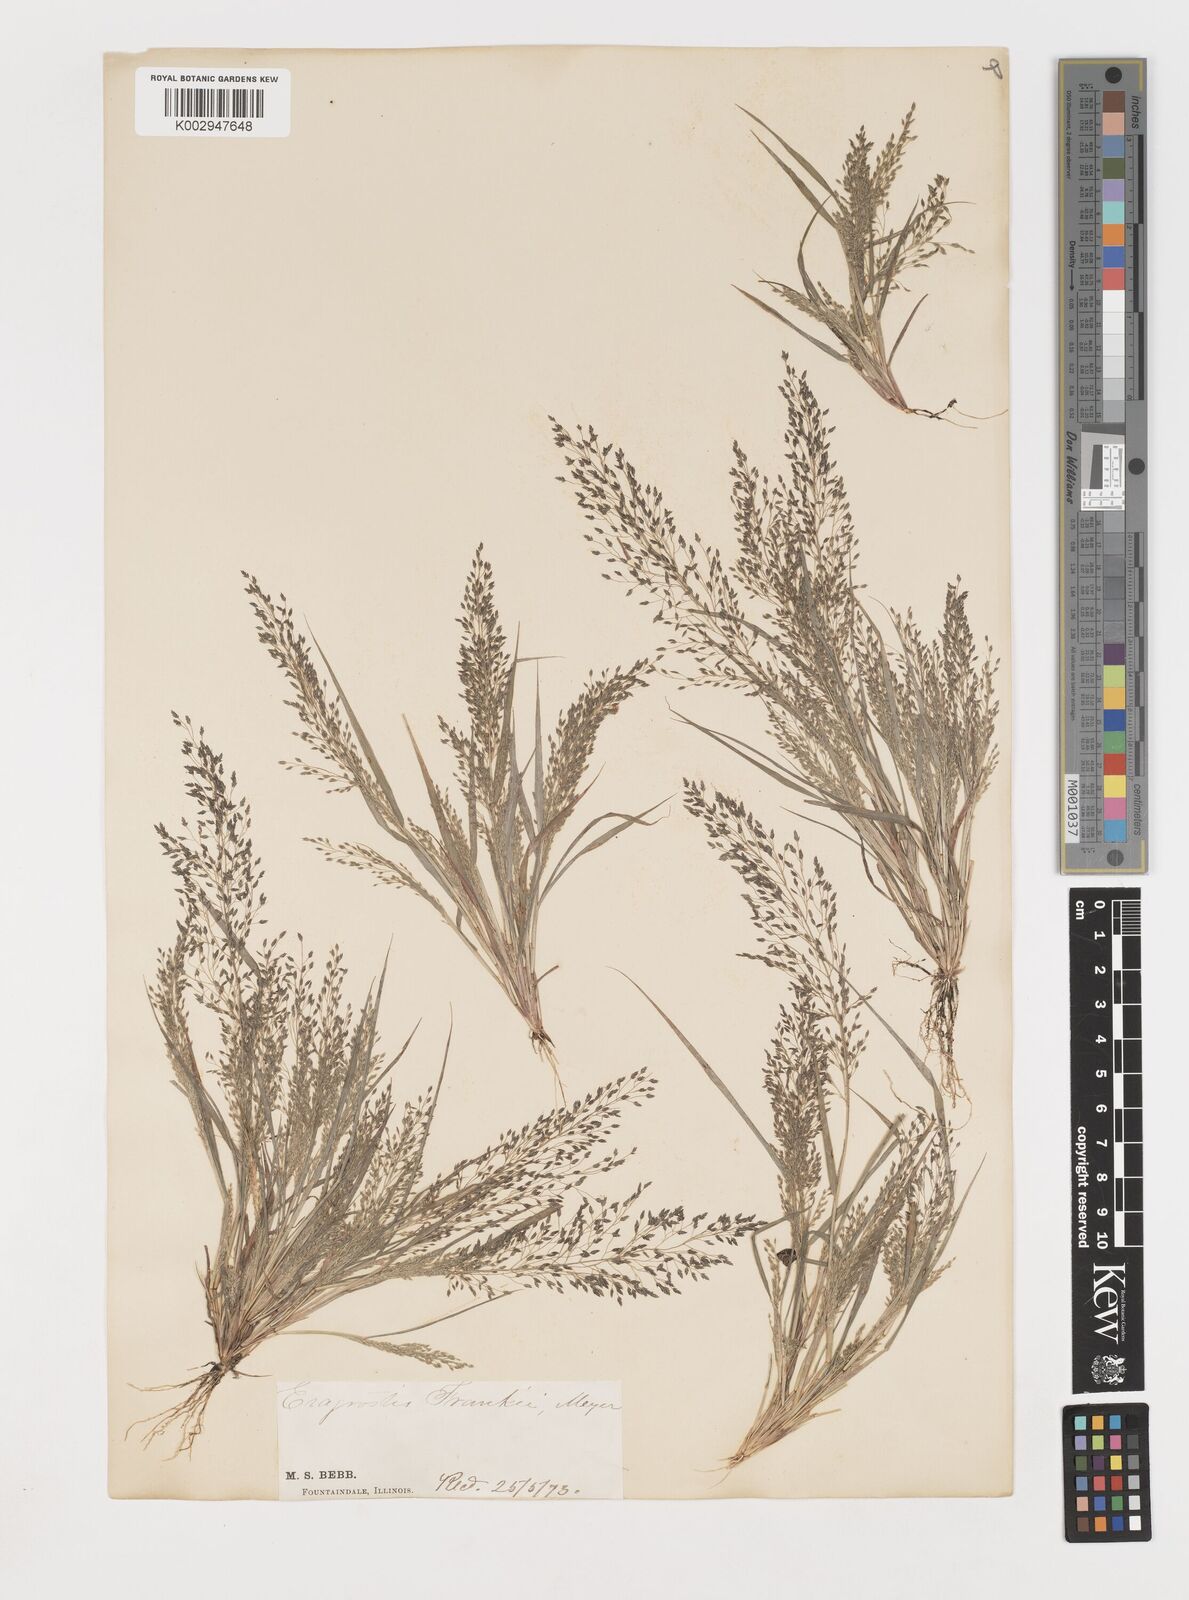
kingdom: Plantae
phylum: Tracheophyta
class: Liliopsida
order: Poales
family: Poaceae
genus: Eragrostis
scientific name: Eragrostis frankii
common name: Frank's lovegrass
